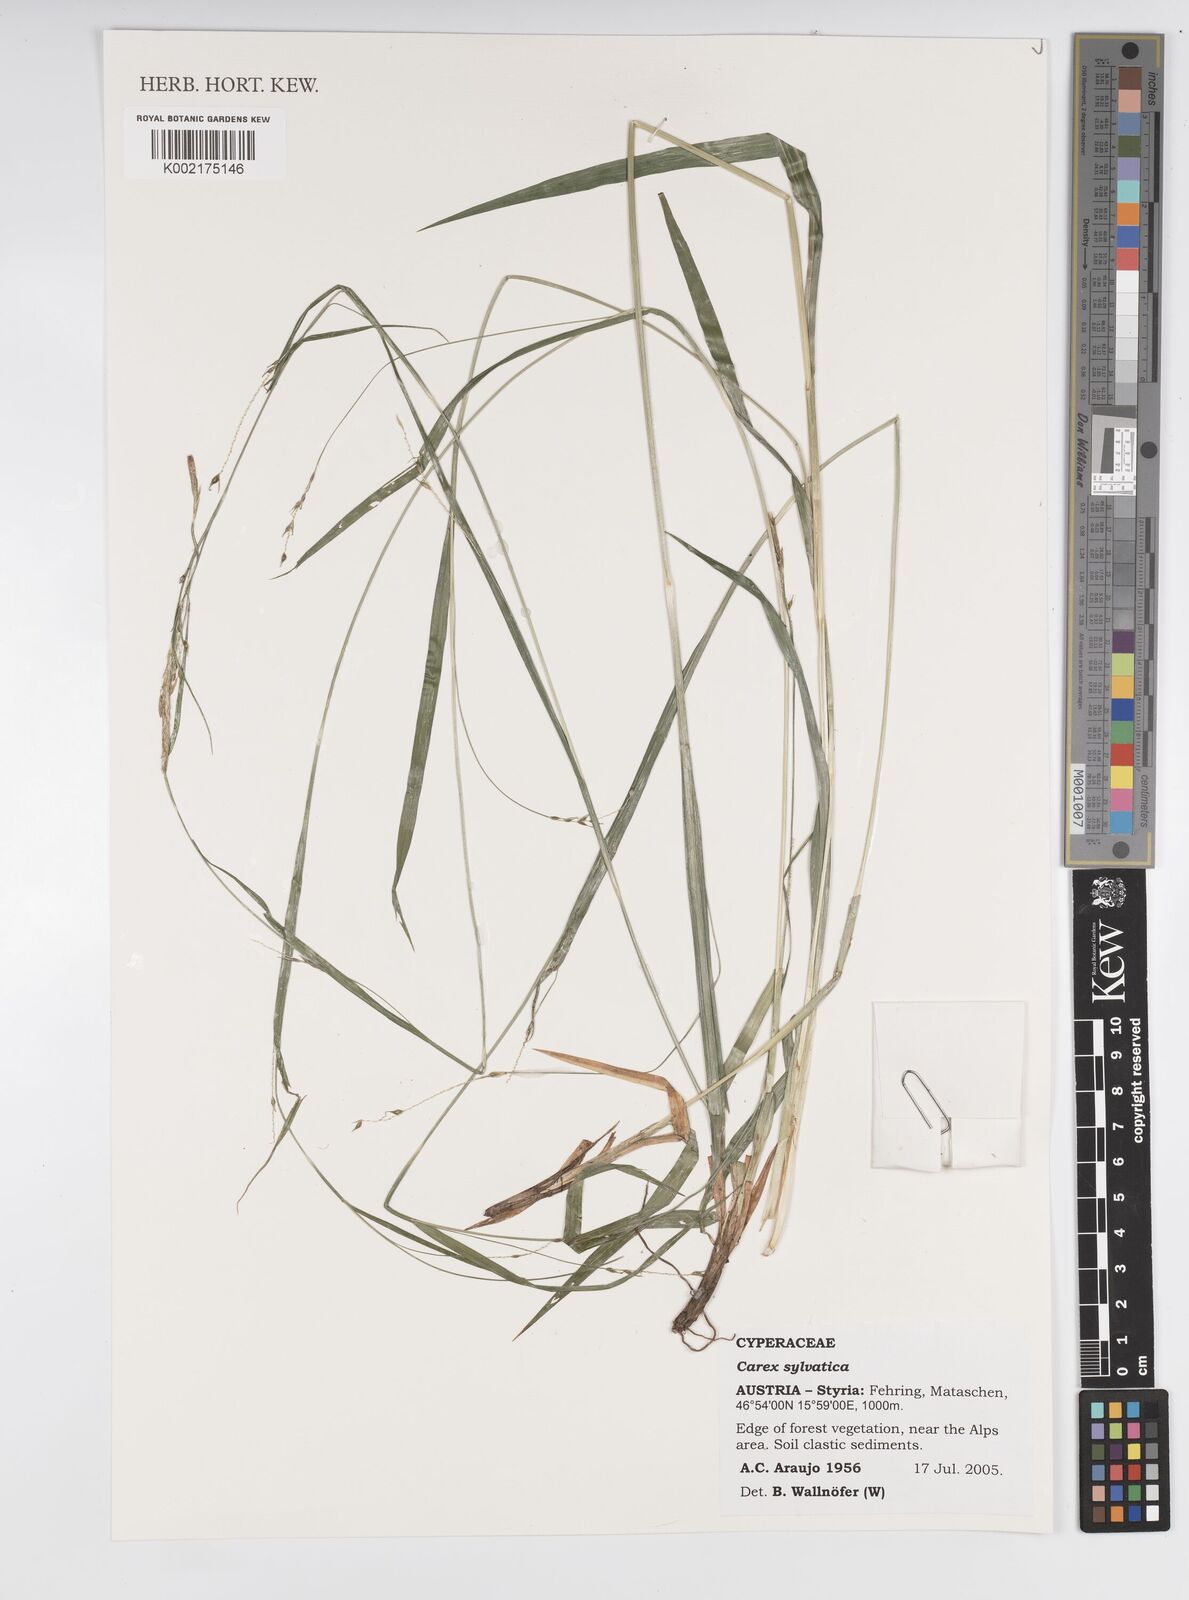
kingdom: Plantae
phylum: Tracheophyta
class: Liliopsida
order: Poales
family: Cyperaceae
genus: Carex
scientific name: Carex sylvatica
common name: Wood-sedge
